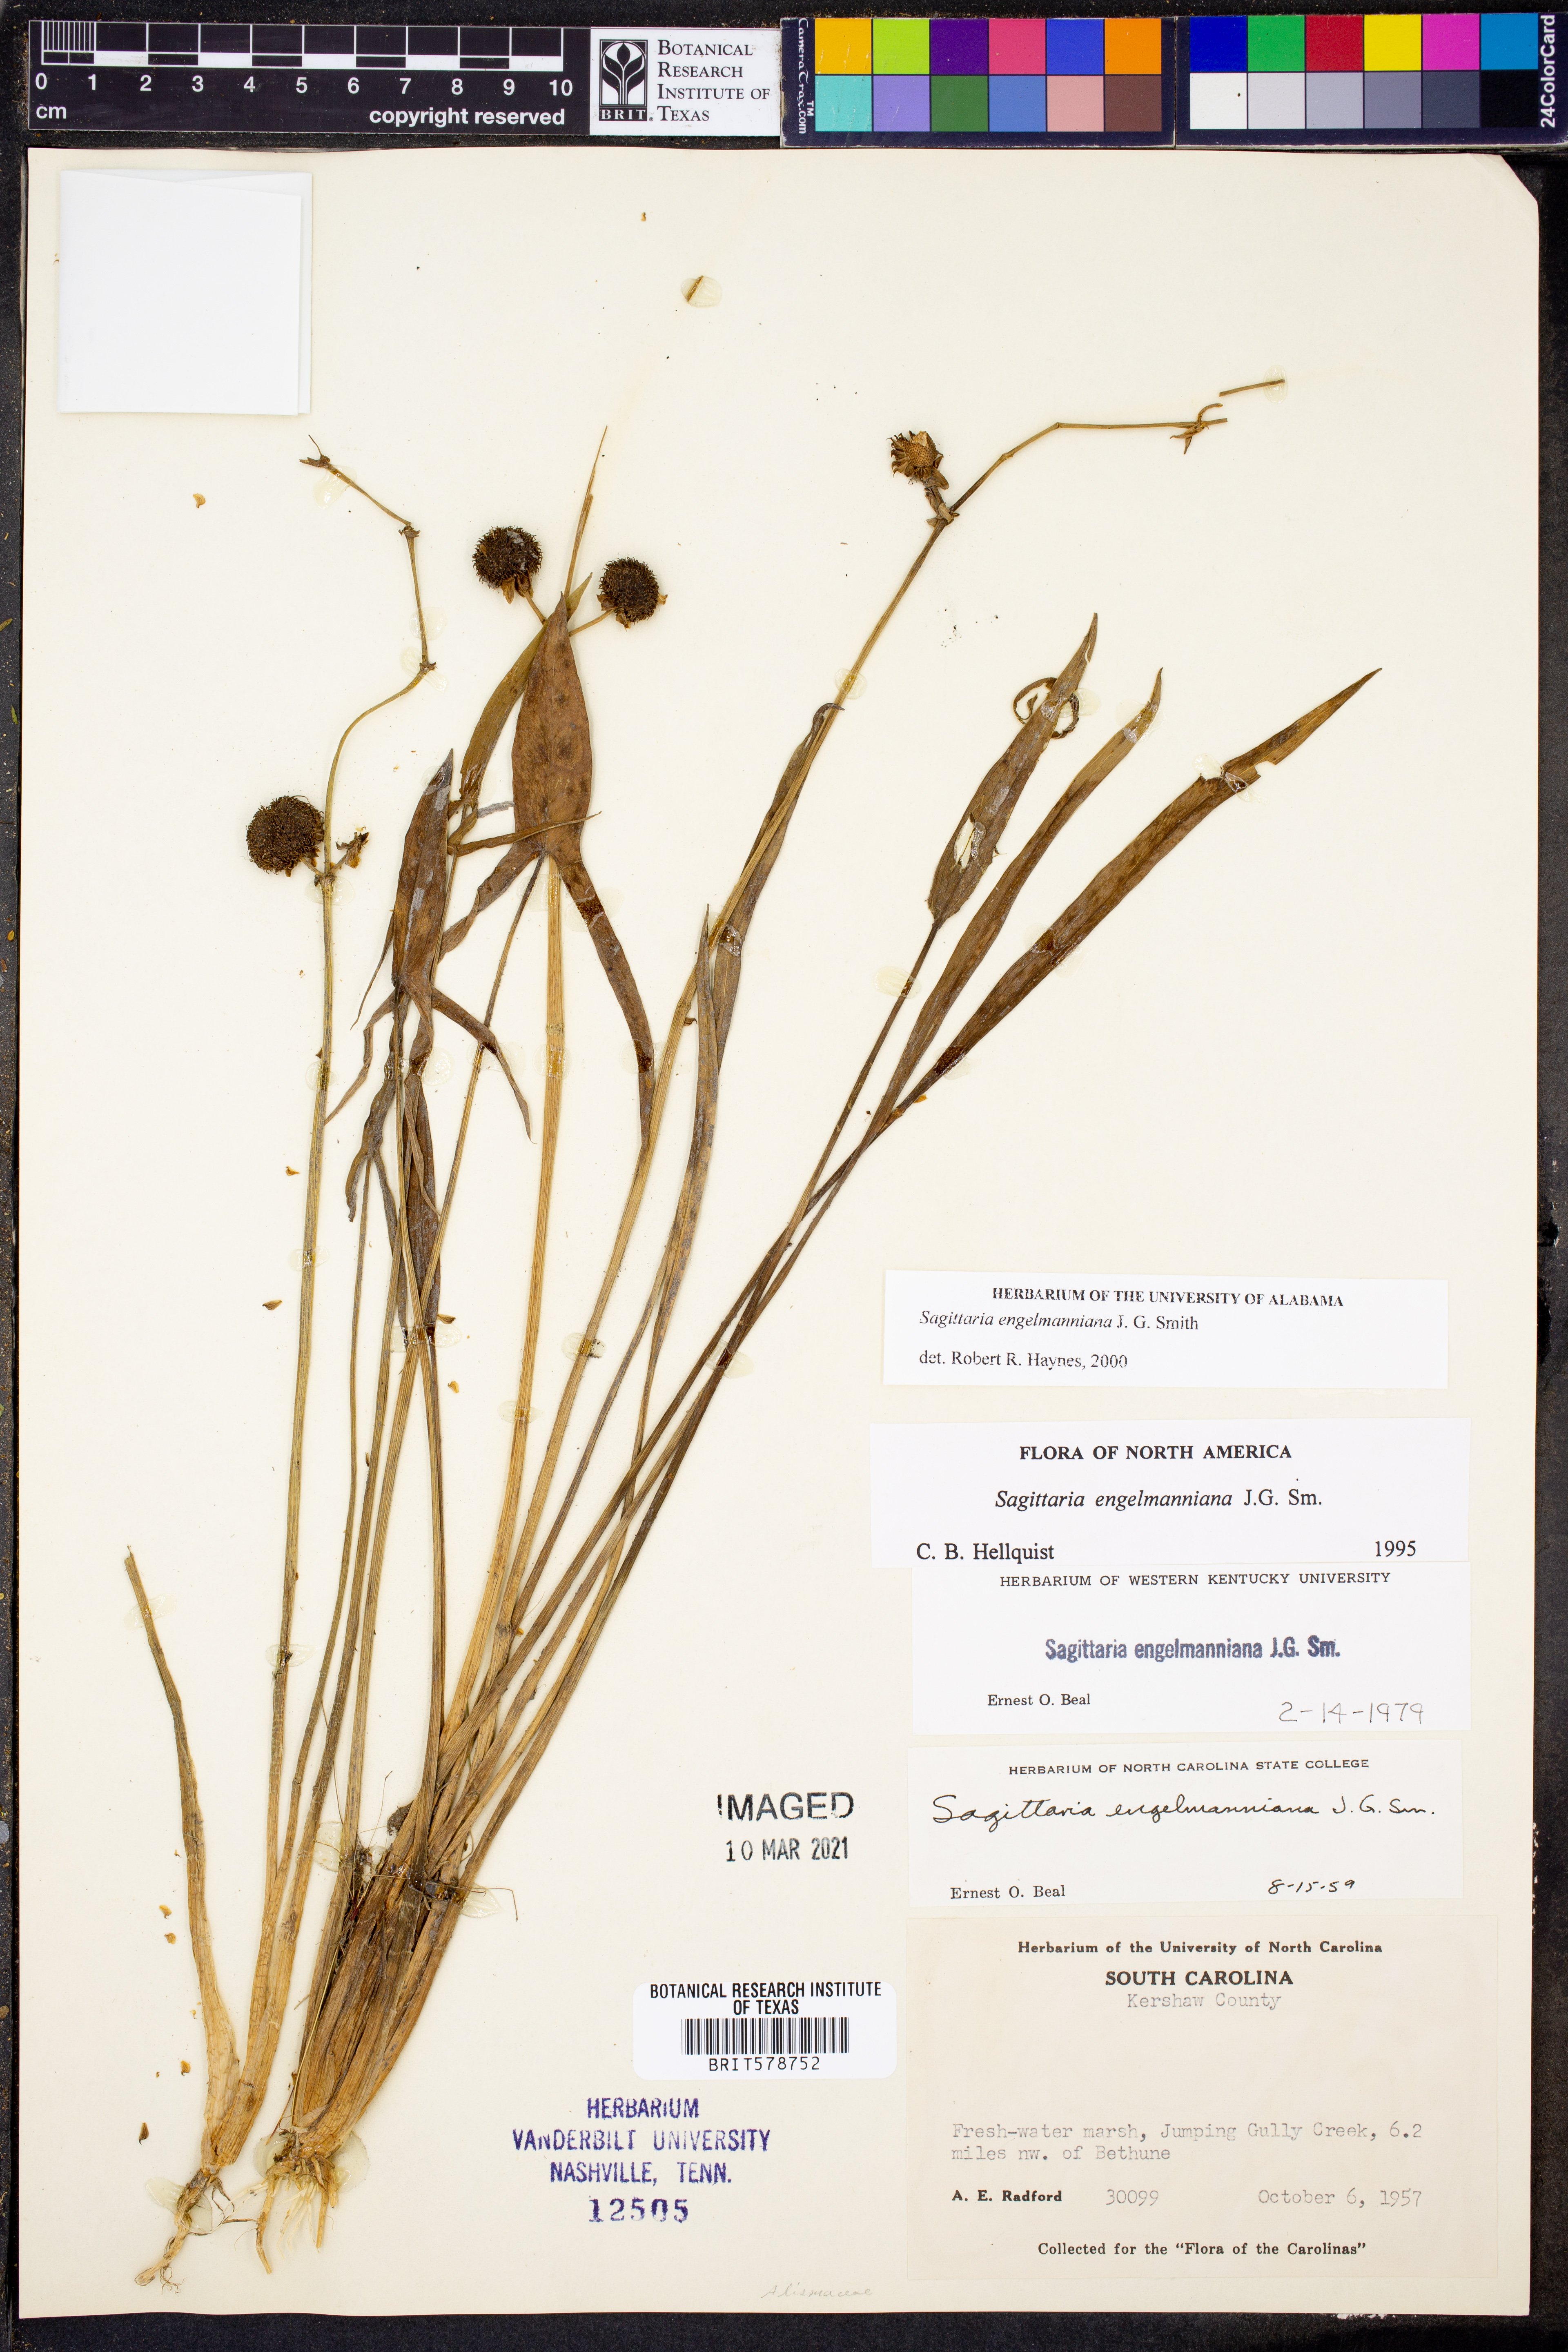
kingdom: Plantae
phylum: Tracheophyta
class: Liliopsida
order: Alismatales
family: Alismataceae
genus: Sagittaria
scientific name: Sagittaria engelmanniana
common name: Acid-water arrowhead
